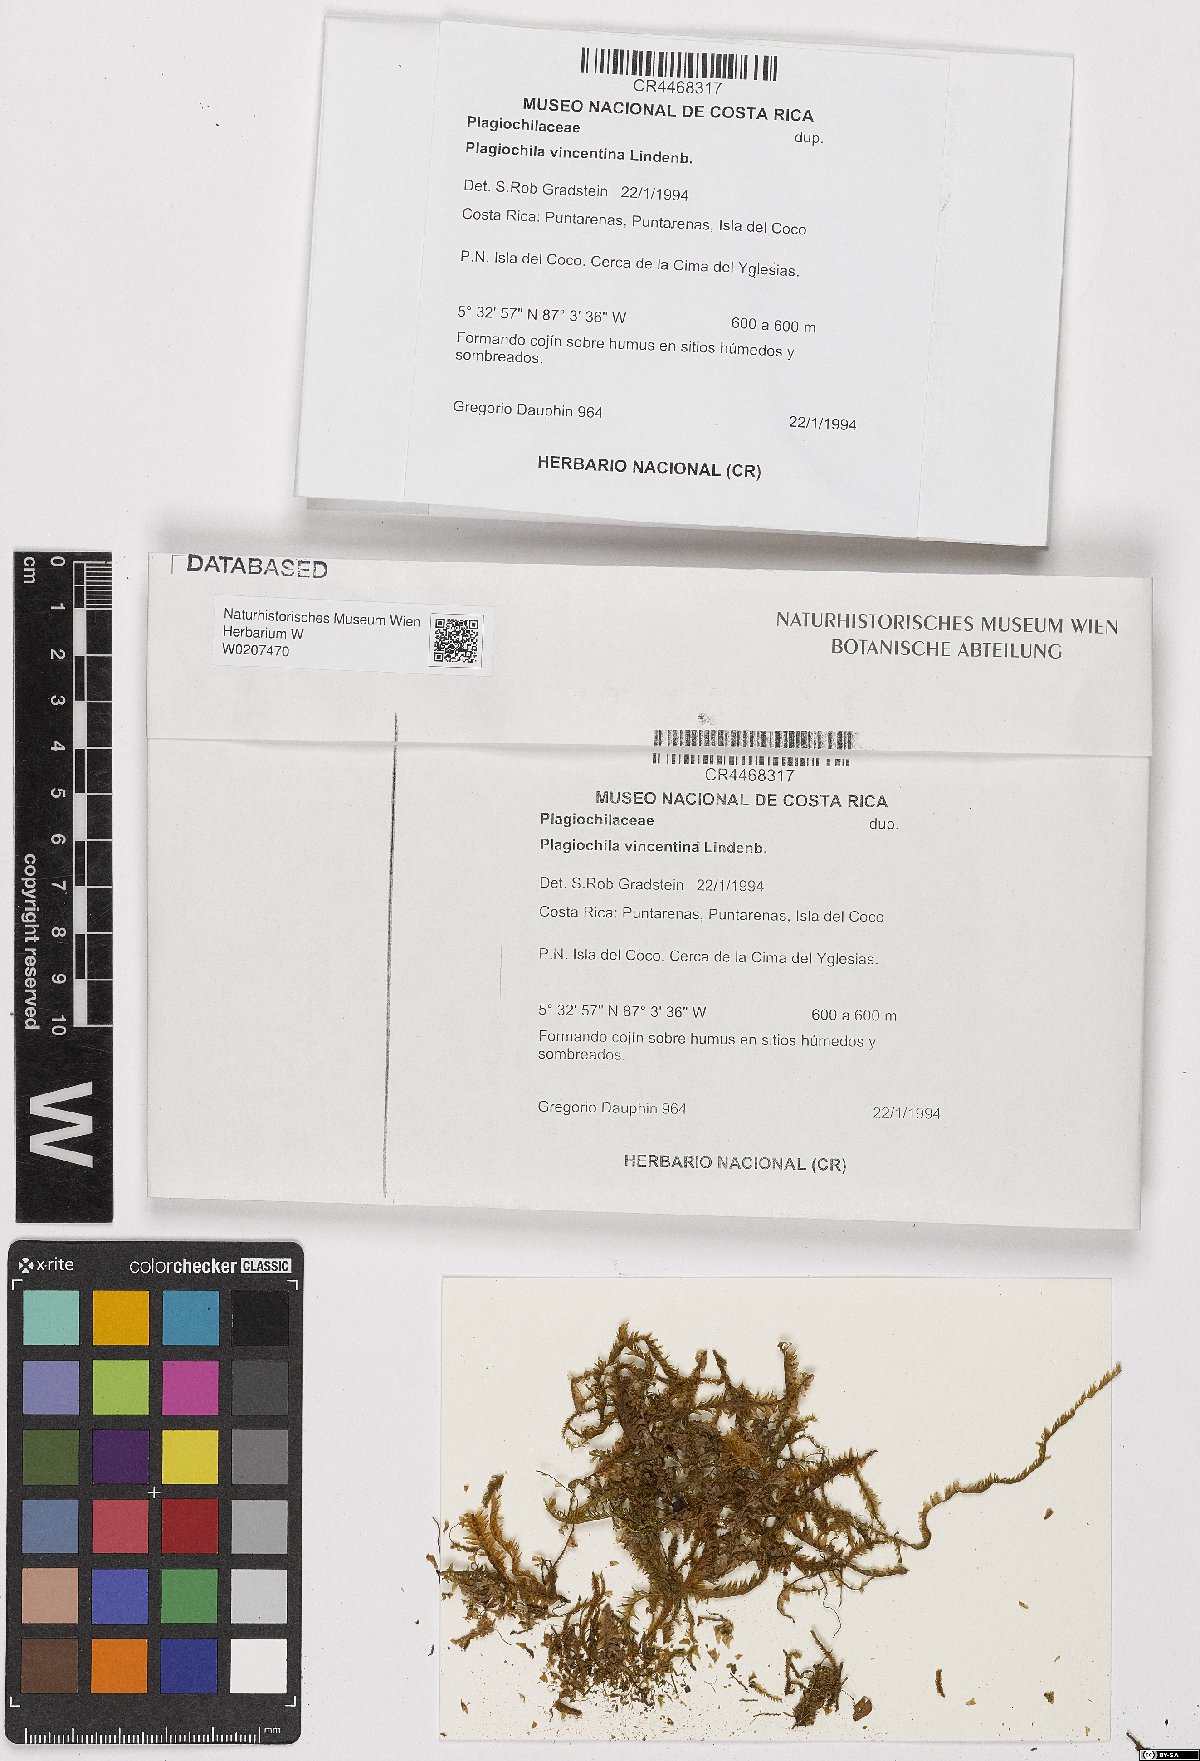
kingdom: Plantae
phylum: Marchantiophyta
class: Jungermanniopsida
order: Jungermanniales
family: Plagiochilaceae
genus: Plagiochila
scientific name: Plagiochila vincentina
